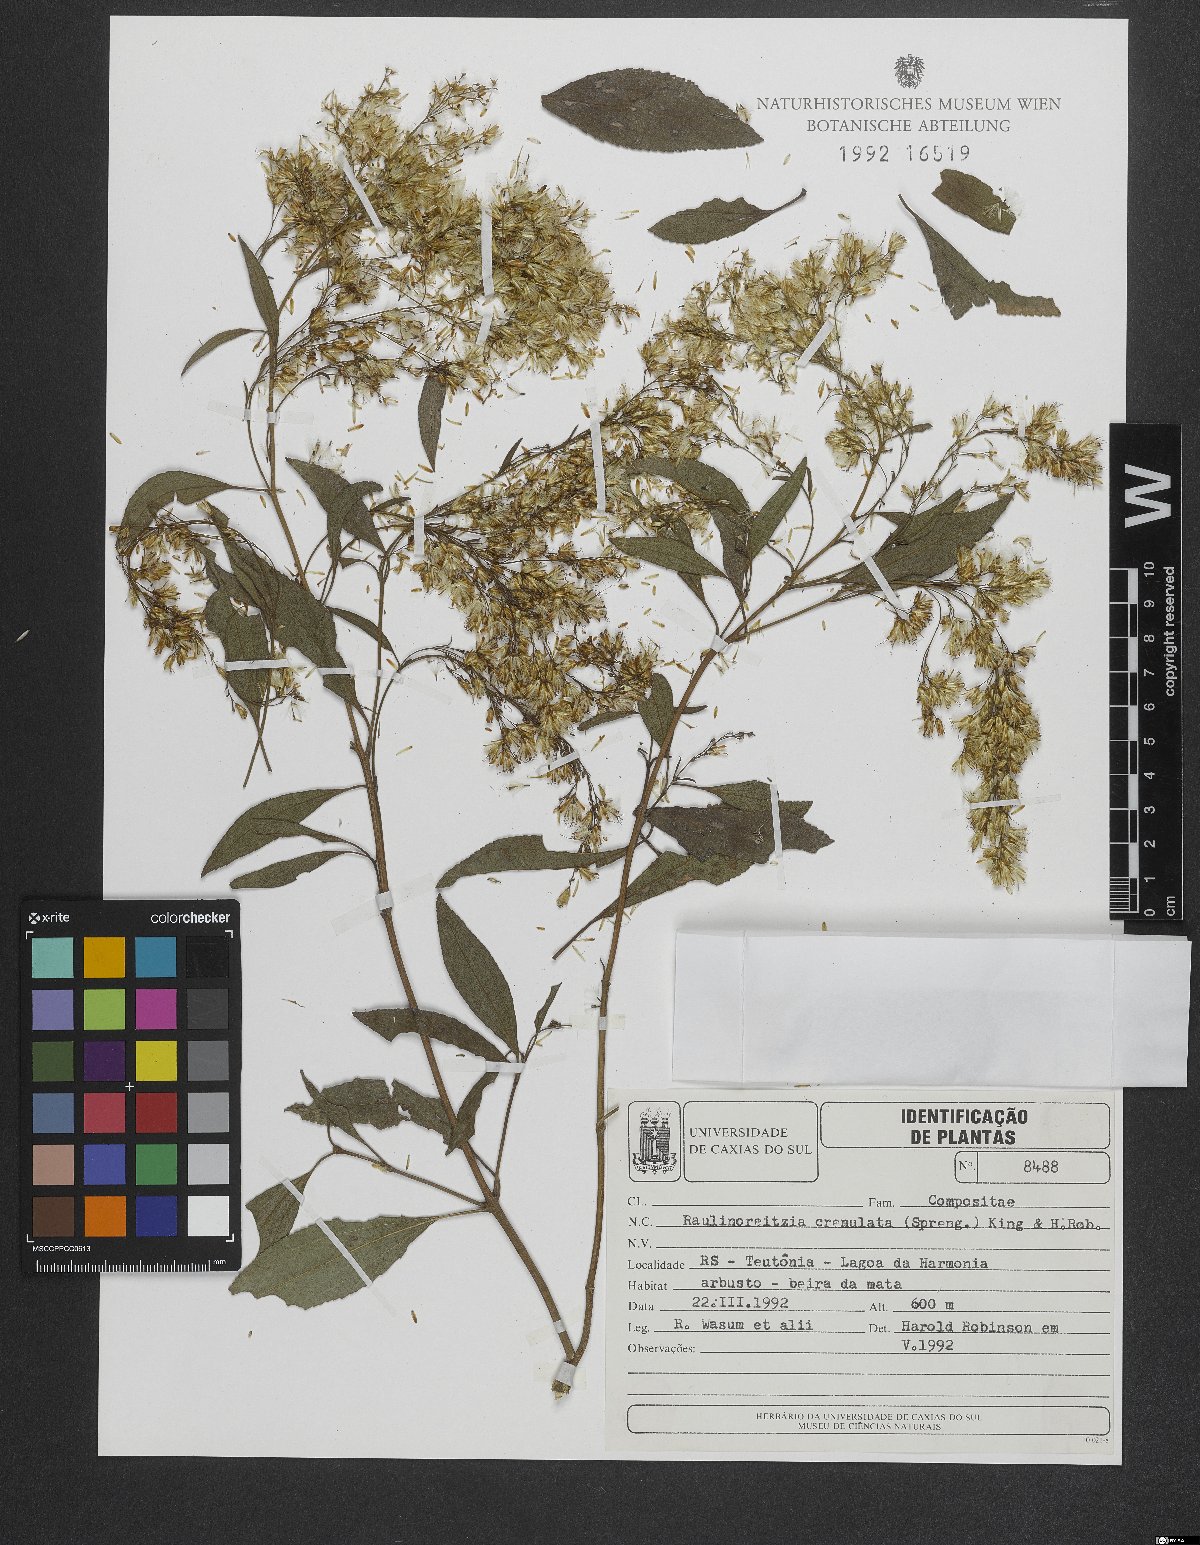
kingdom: Plantae
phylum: Tracheophyta
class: Magnoliopsida
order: Asterales
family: Asteraceae
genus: Raulinoreitzia
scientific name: Raulinoreitzia crenulata
